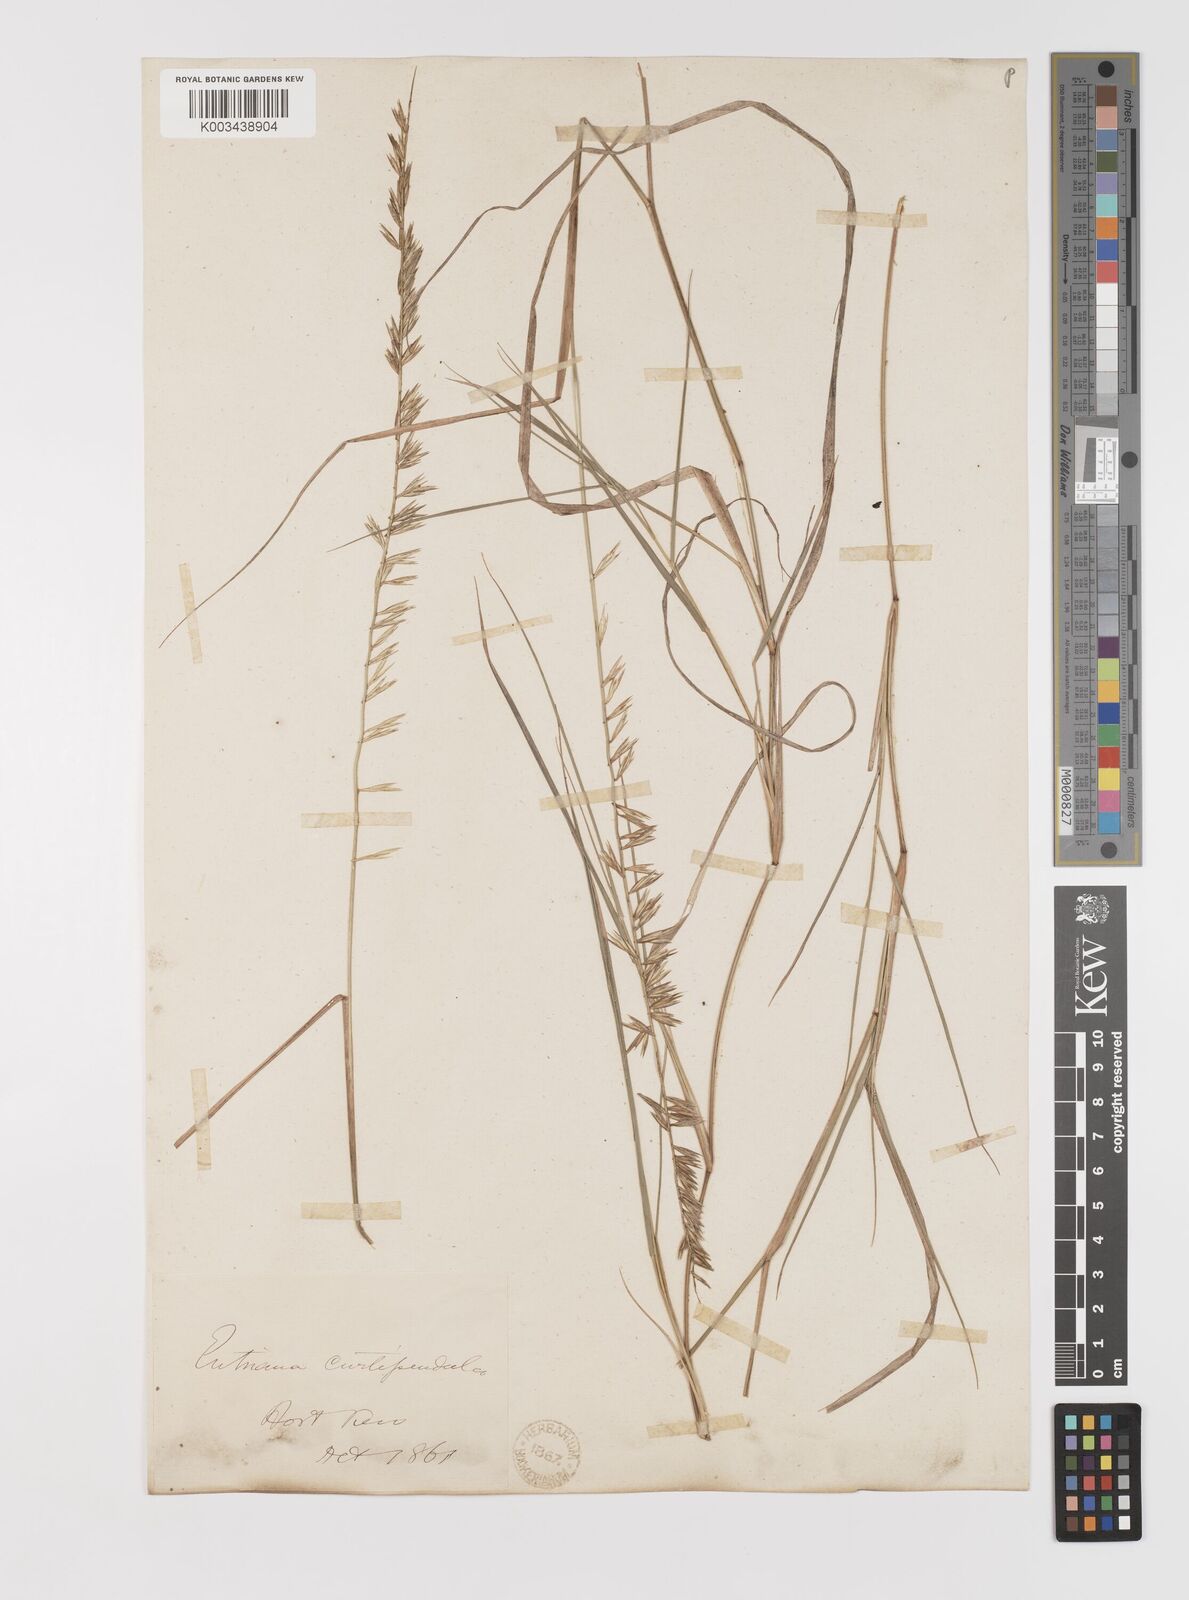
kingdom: Plantae
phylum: Tracheophyta
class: Liliopsida
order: Poales
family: Poaceae
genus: Bouteloua
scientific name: Bouteloua curtipendula
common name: Side-oats grama
